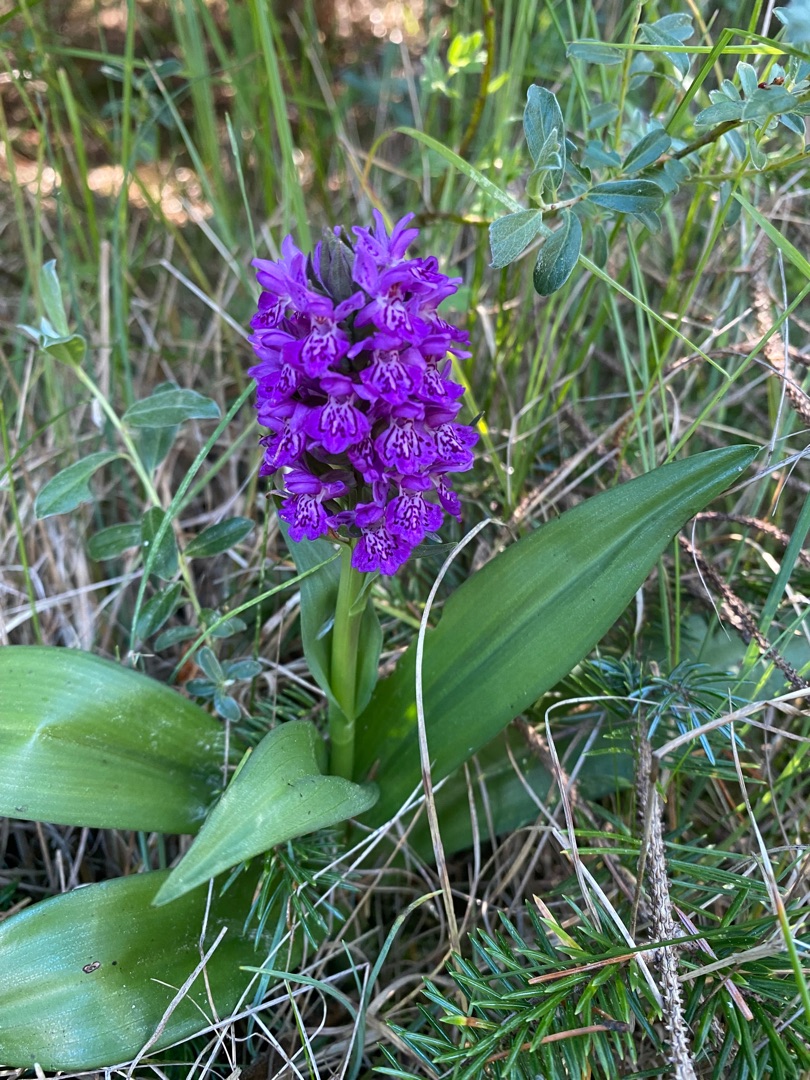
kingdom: Plantae
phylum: Tracheophyta
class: Liliopsida
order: Asparagales
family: Orchidaceae
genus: Dactylorhiza
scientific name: Dactylorhiza majalis
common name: Maj-gøgeurt
